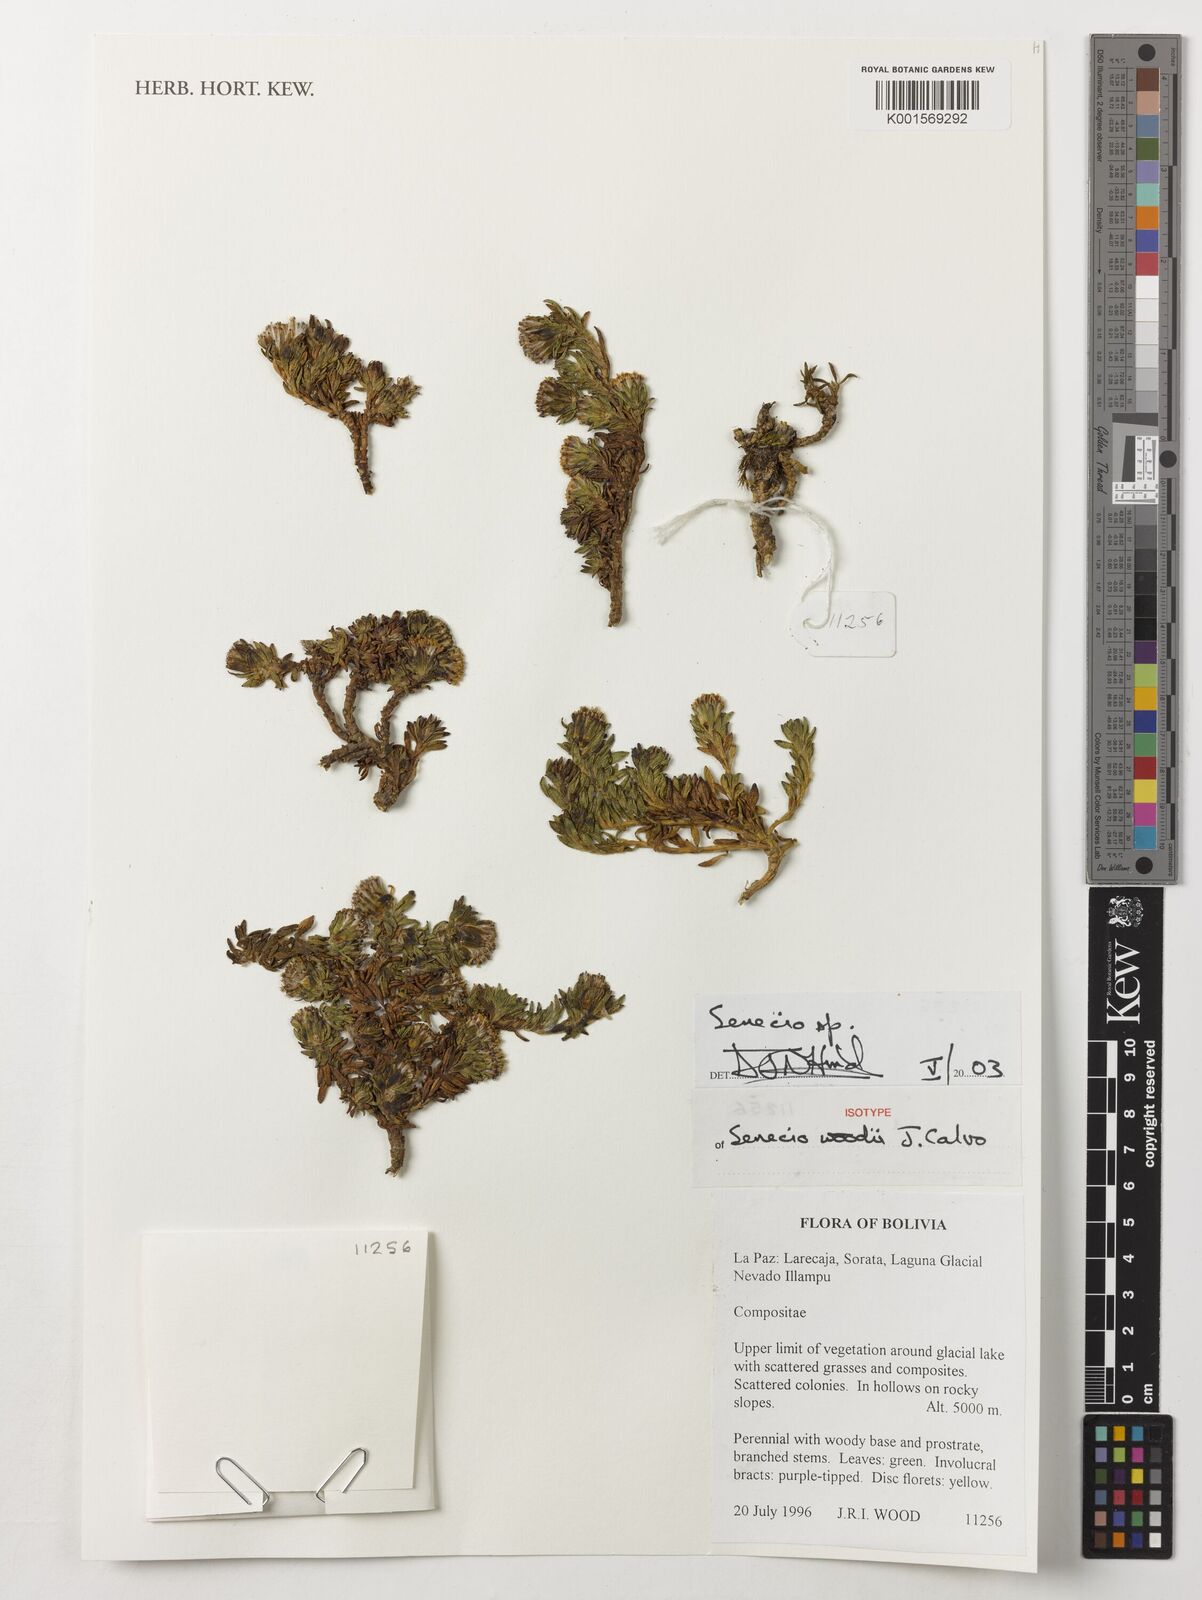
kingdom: Plantae
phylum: Tracheophyta
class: Magnoliopsida
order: Asterales
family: Asteraceae
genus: Senecio
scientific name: Senecio woodii
